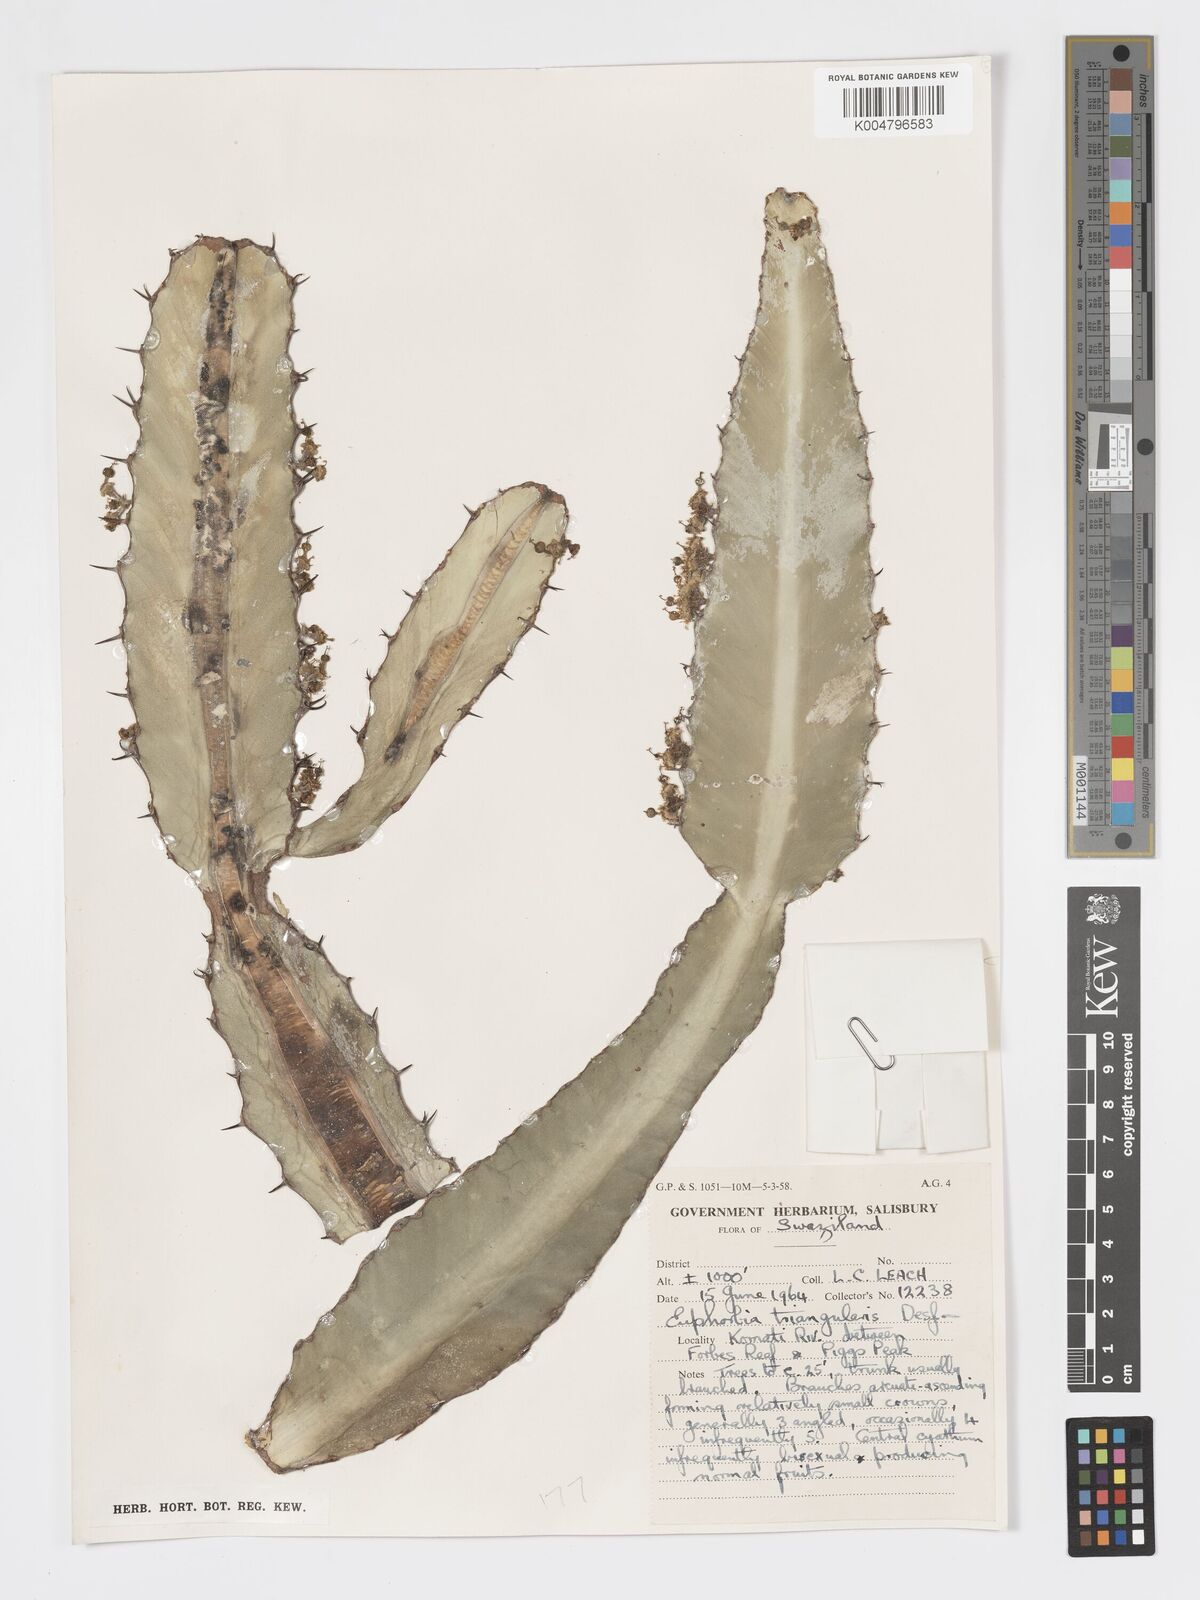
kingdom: Plantae
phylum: Tracheophyta
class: Magnoliopsida
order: Malpighiales
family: Euphorbiaceae
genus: Euphorbia
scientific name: Euphorbia triangularis
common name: Chandelier tree
